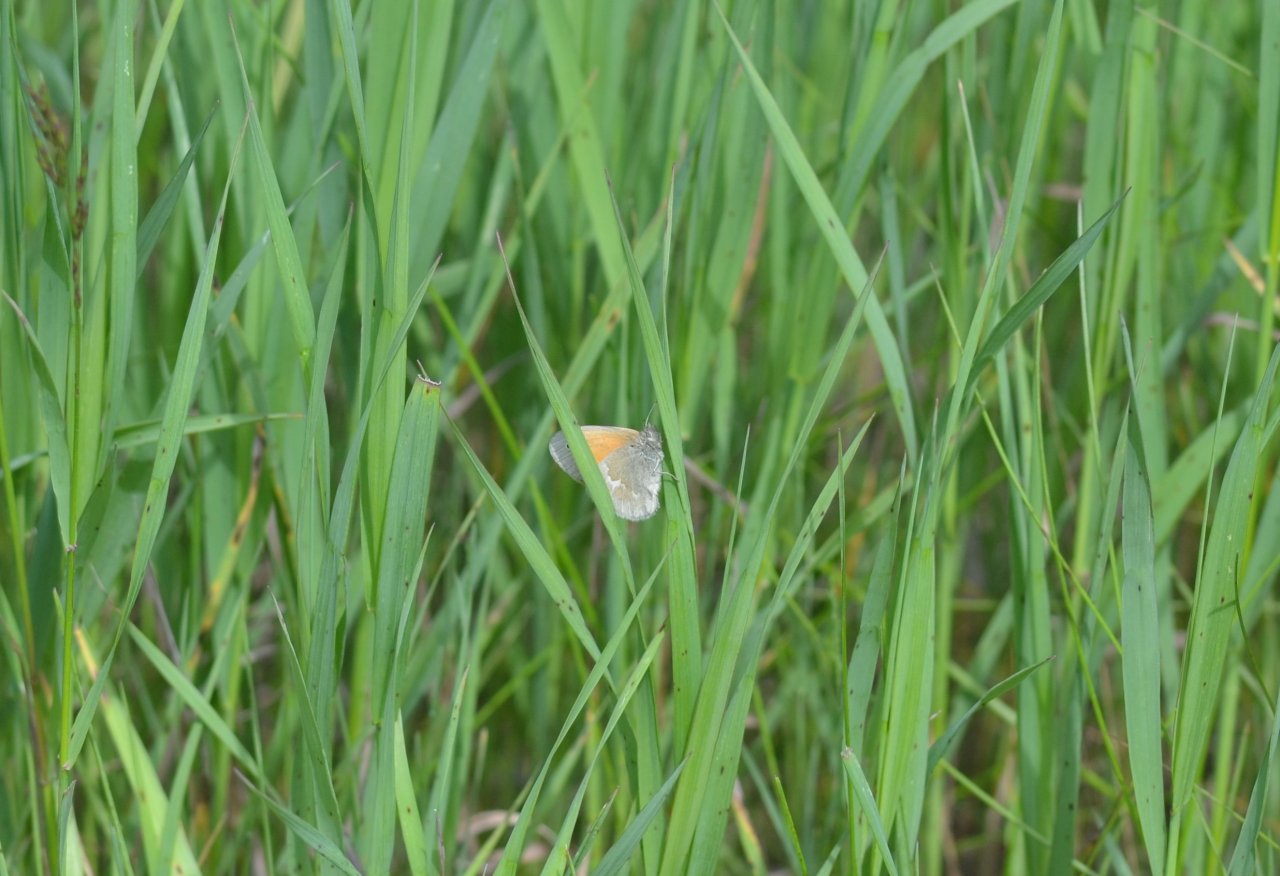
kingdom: Animalia
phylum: Arthropoda
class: Insecta
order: Lepidoptera
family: Nymphalidae
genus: Coenonympha
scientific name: Coenonympha tullia
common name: Large Heath
